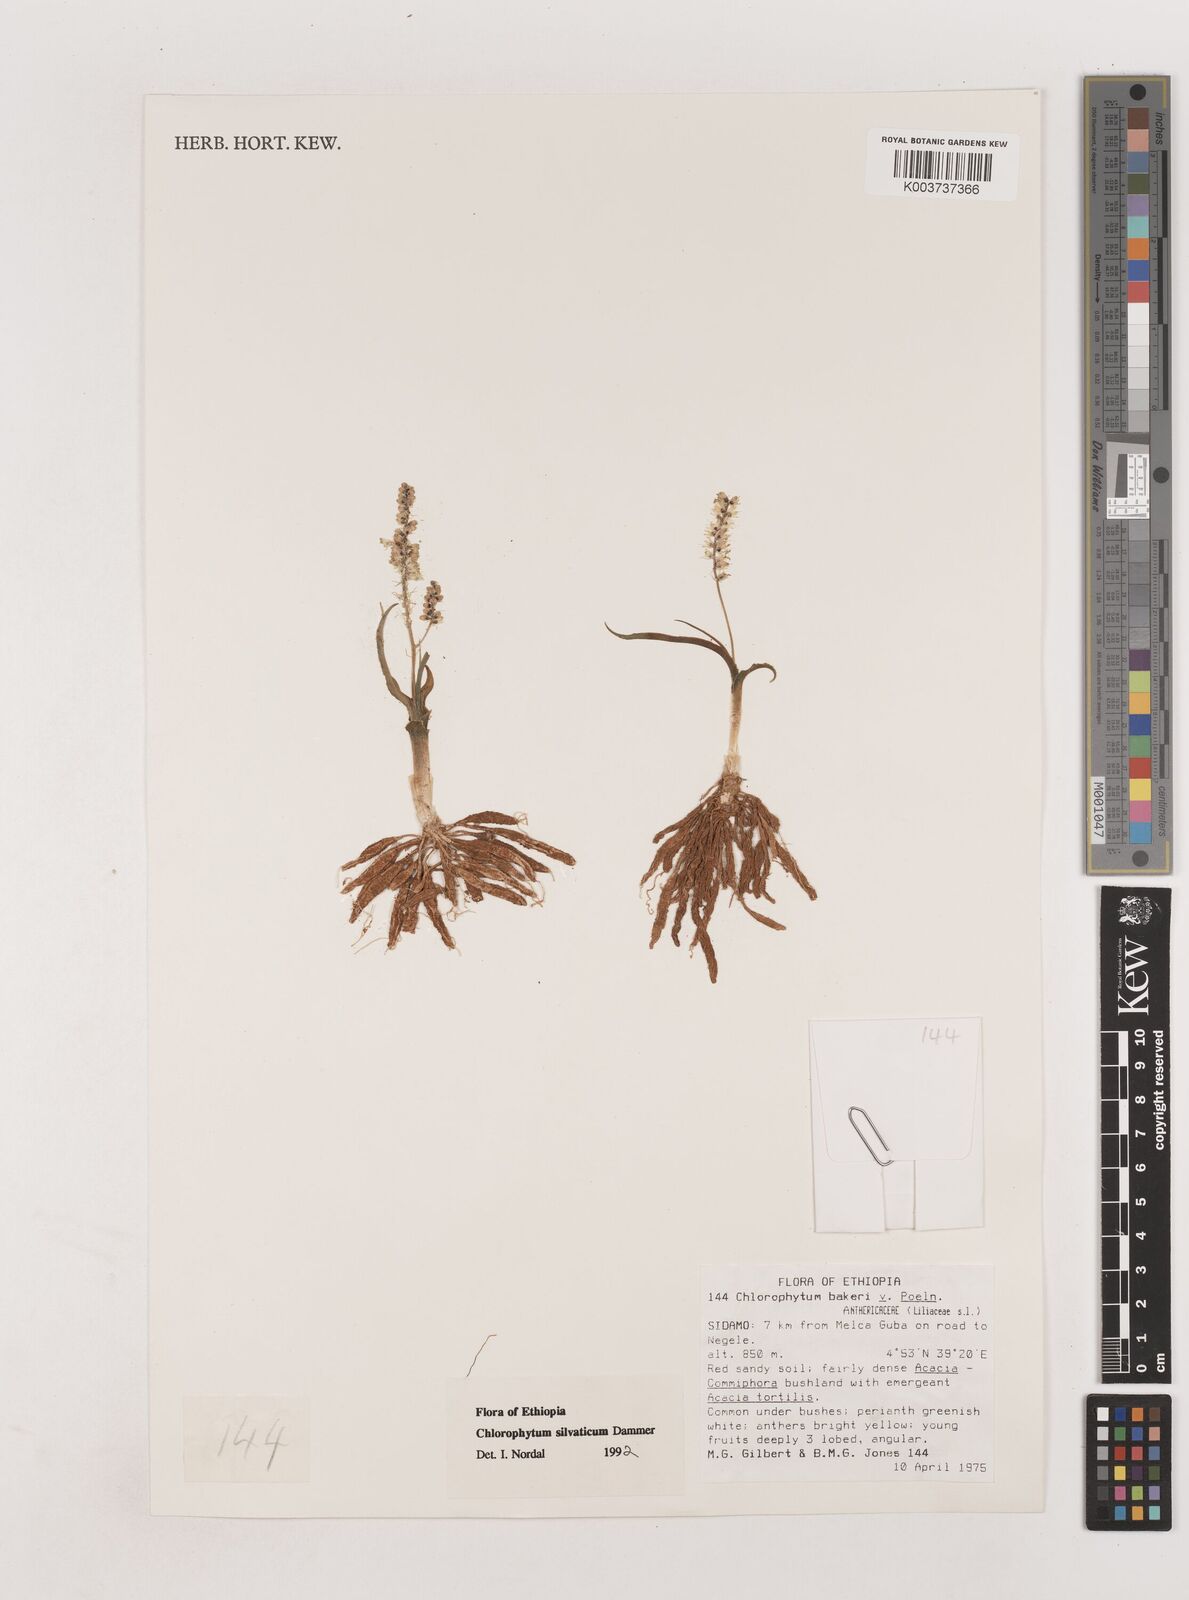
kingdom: Plantae
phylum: Tracheophyta
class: Liliopsida
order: Asparagales
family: Asparagaceae
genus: Chlorophytum
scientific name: Chlorophytum africanum
